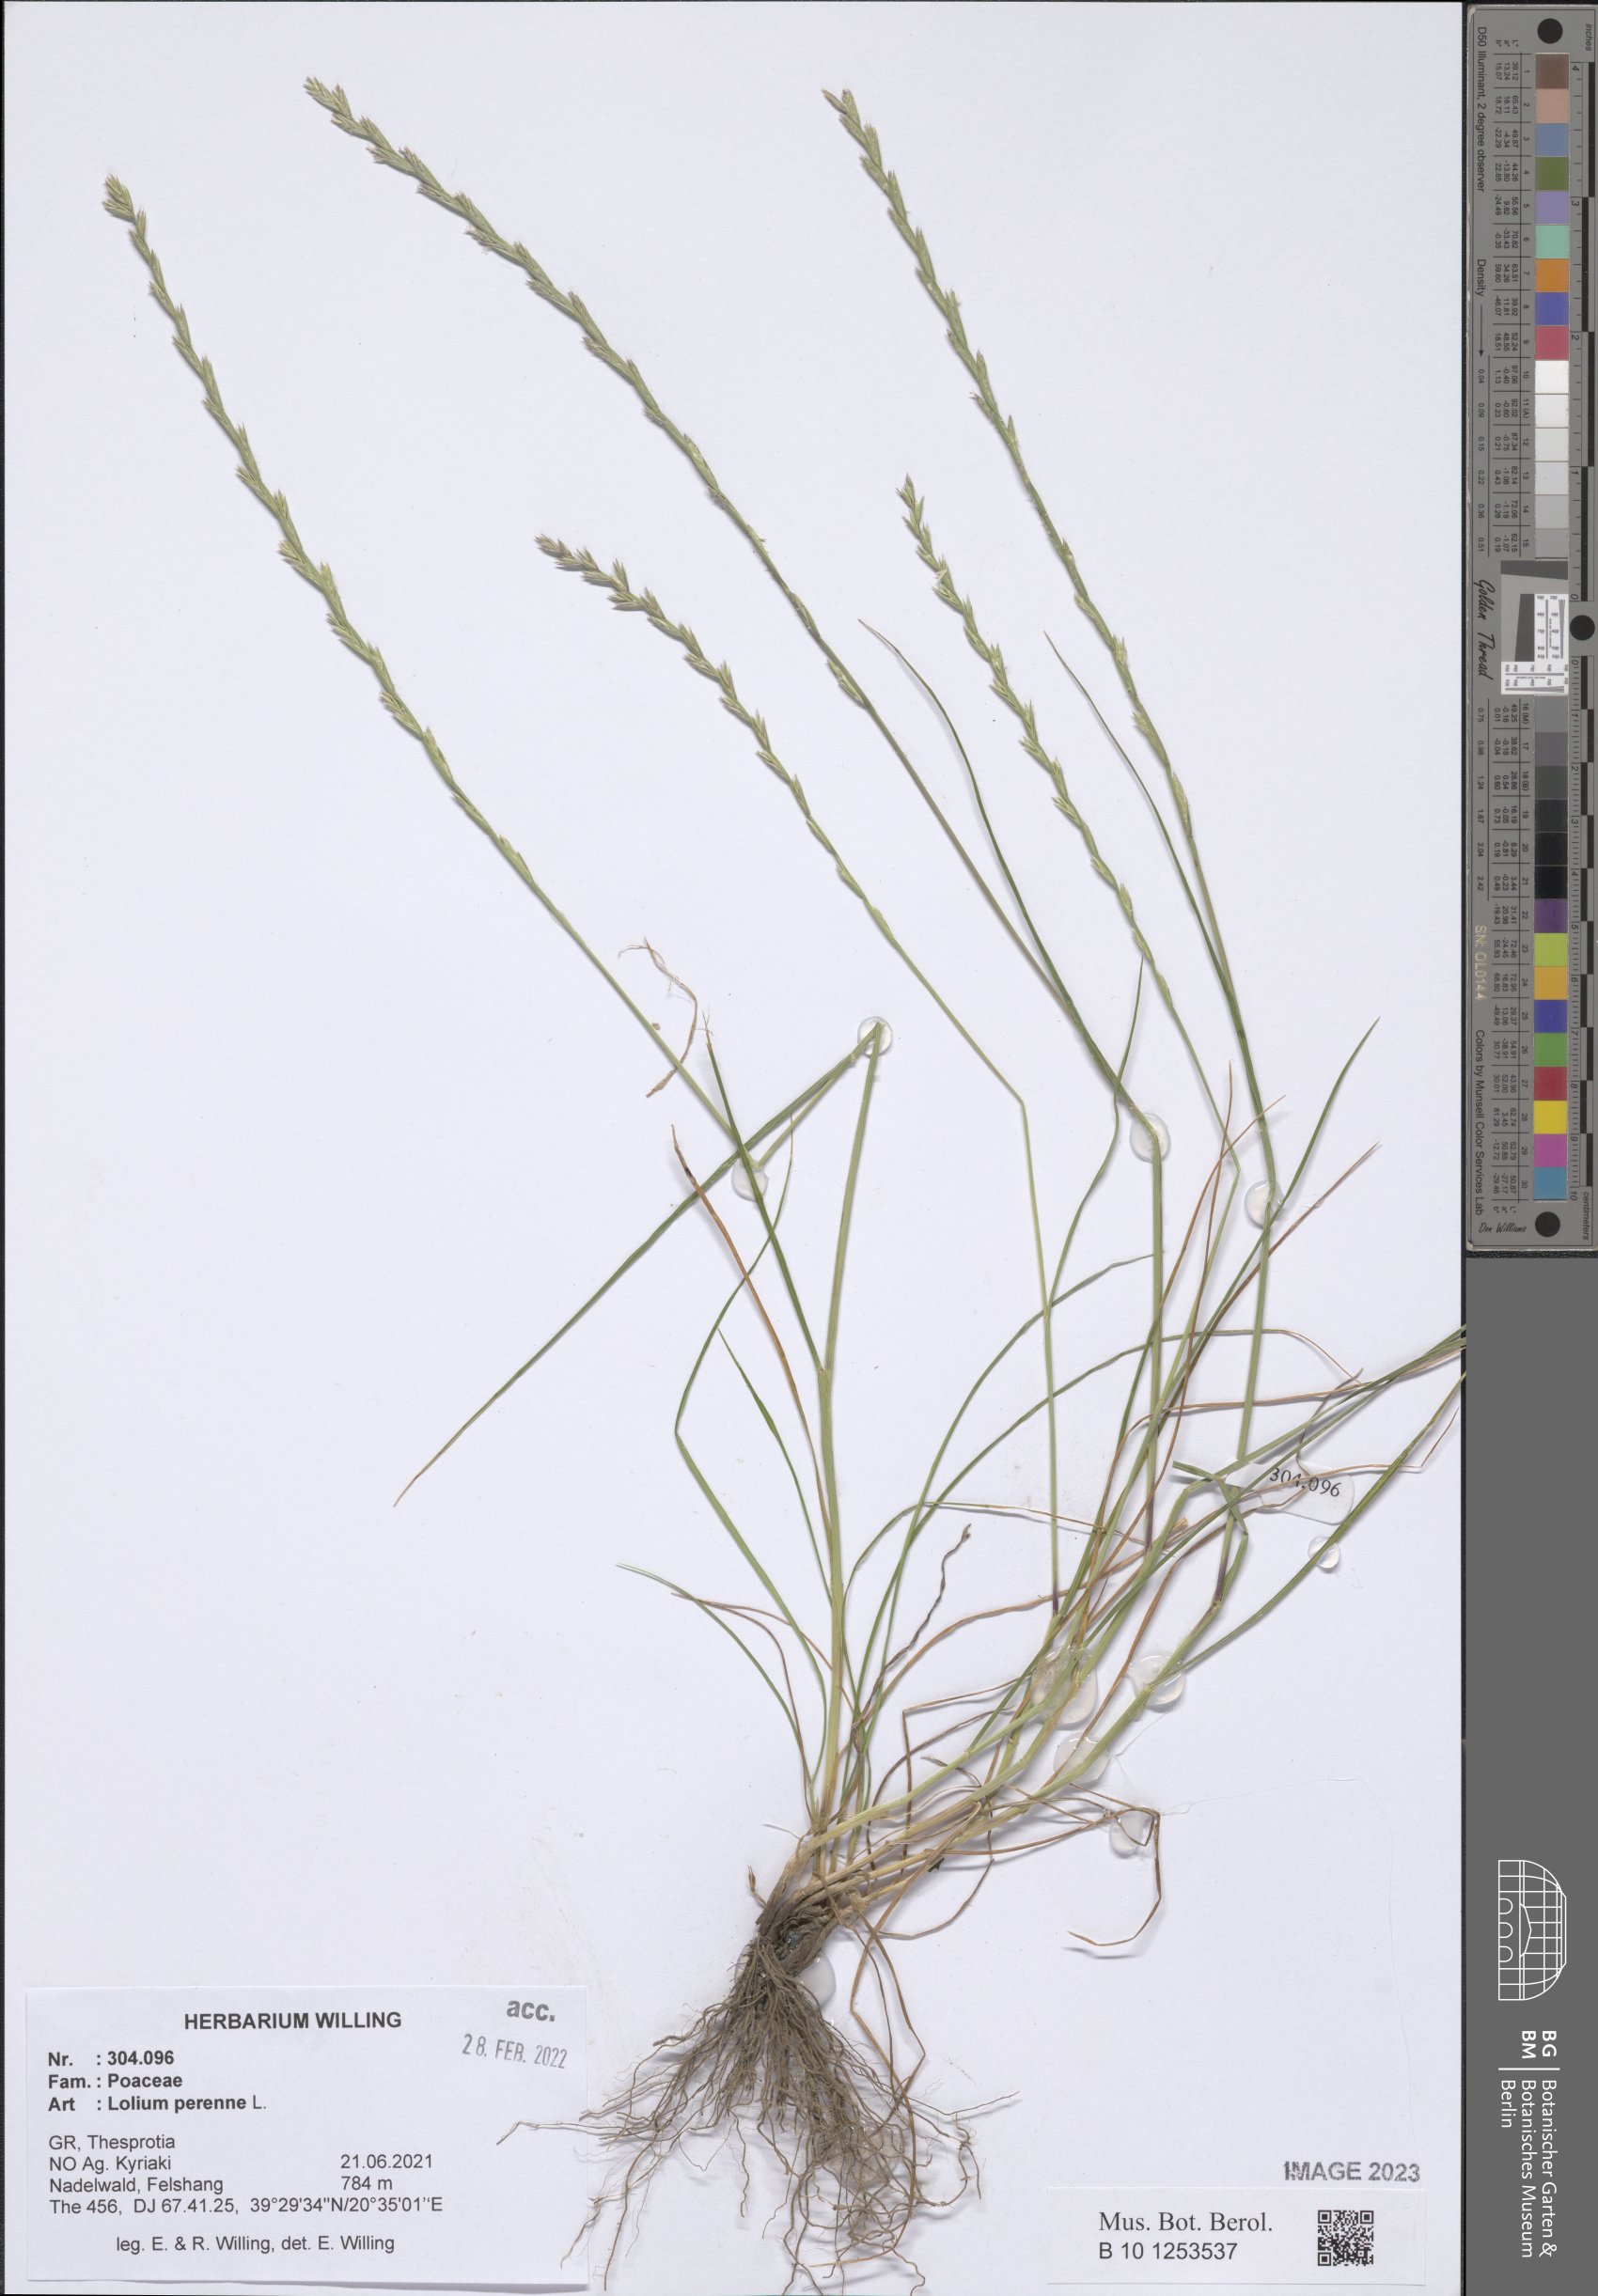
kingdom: Plantae
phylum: Tracheophyta
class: Liliopsida
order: Poales
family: Poaceae
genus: Lolium
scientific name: Lolium perenne
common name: Perennial ryegrass
